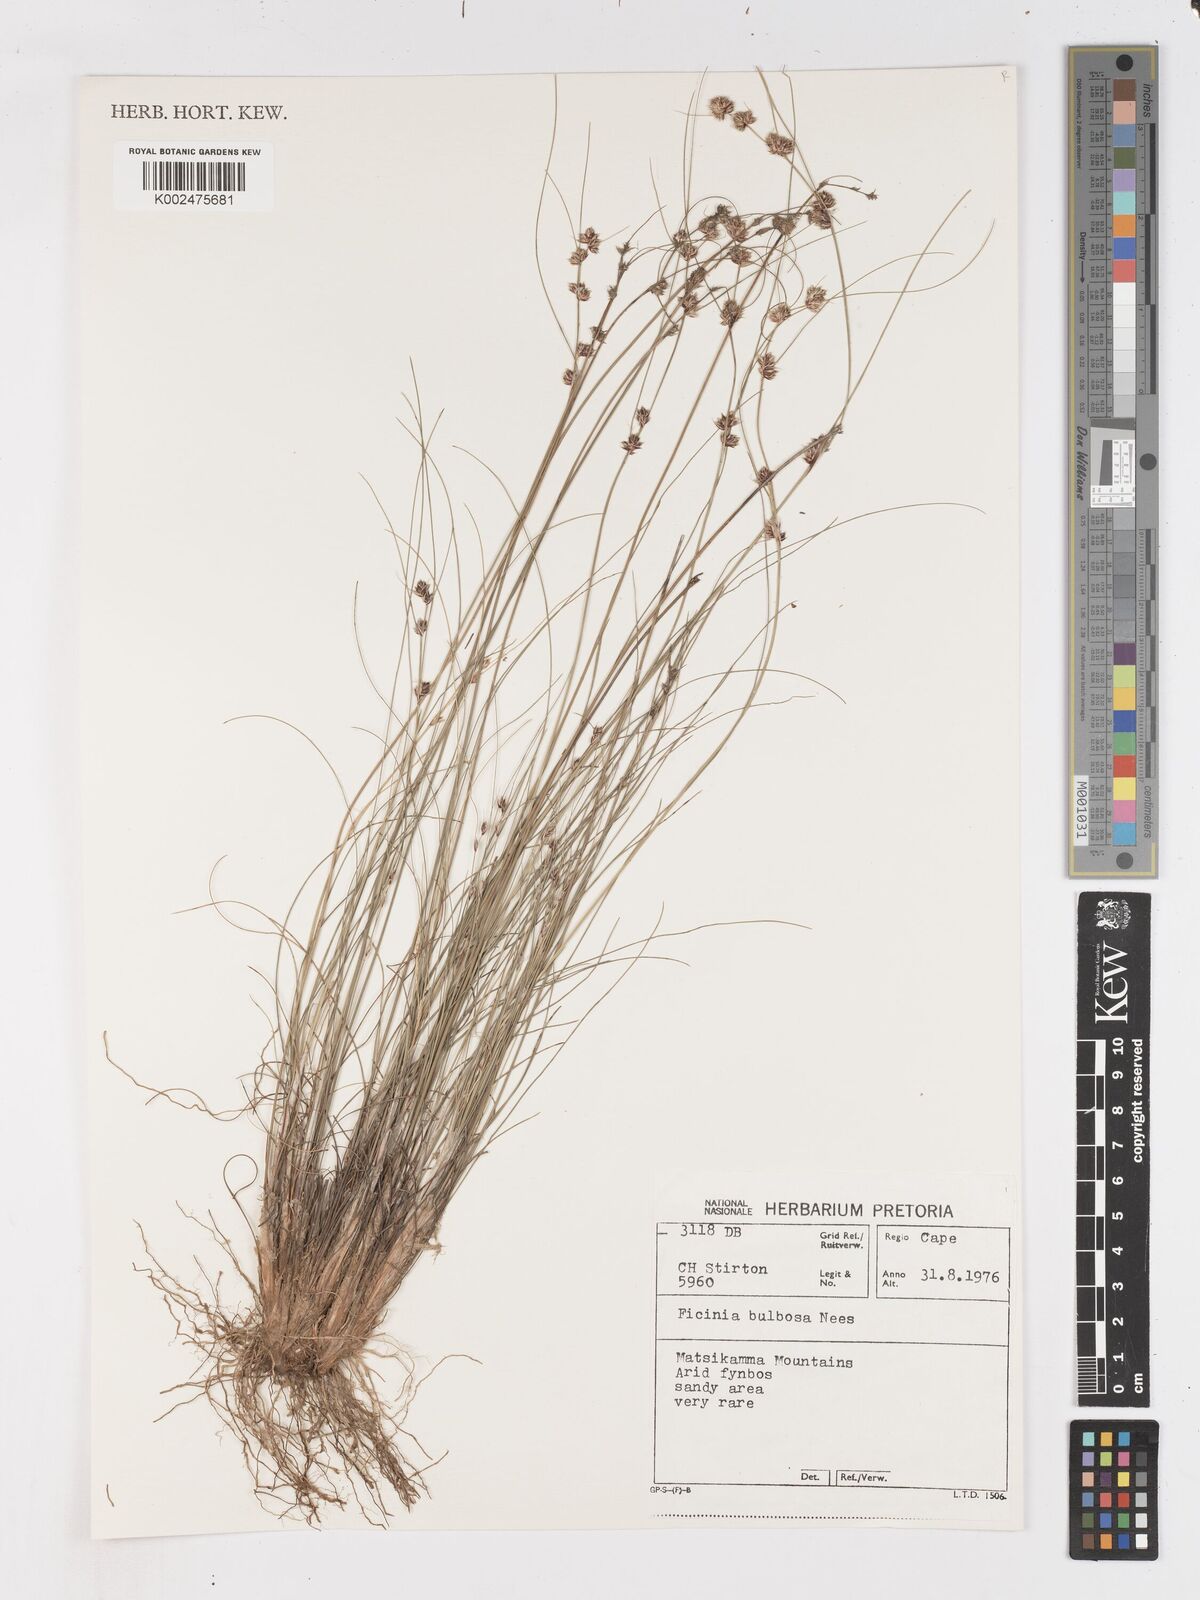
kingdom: Plantae
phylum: Tracheophyta
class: Liliopsida
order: Poales
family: Cyperaceae
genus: Ficinia
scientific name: Ficinia bulbosa
